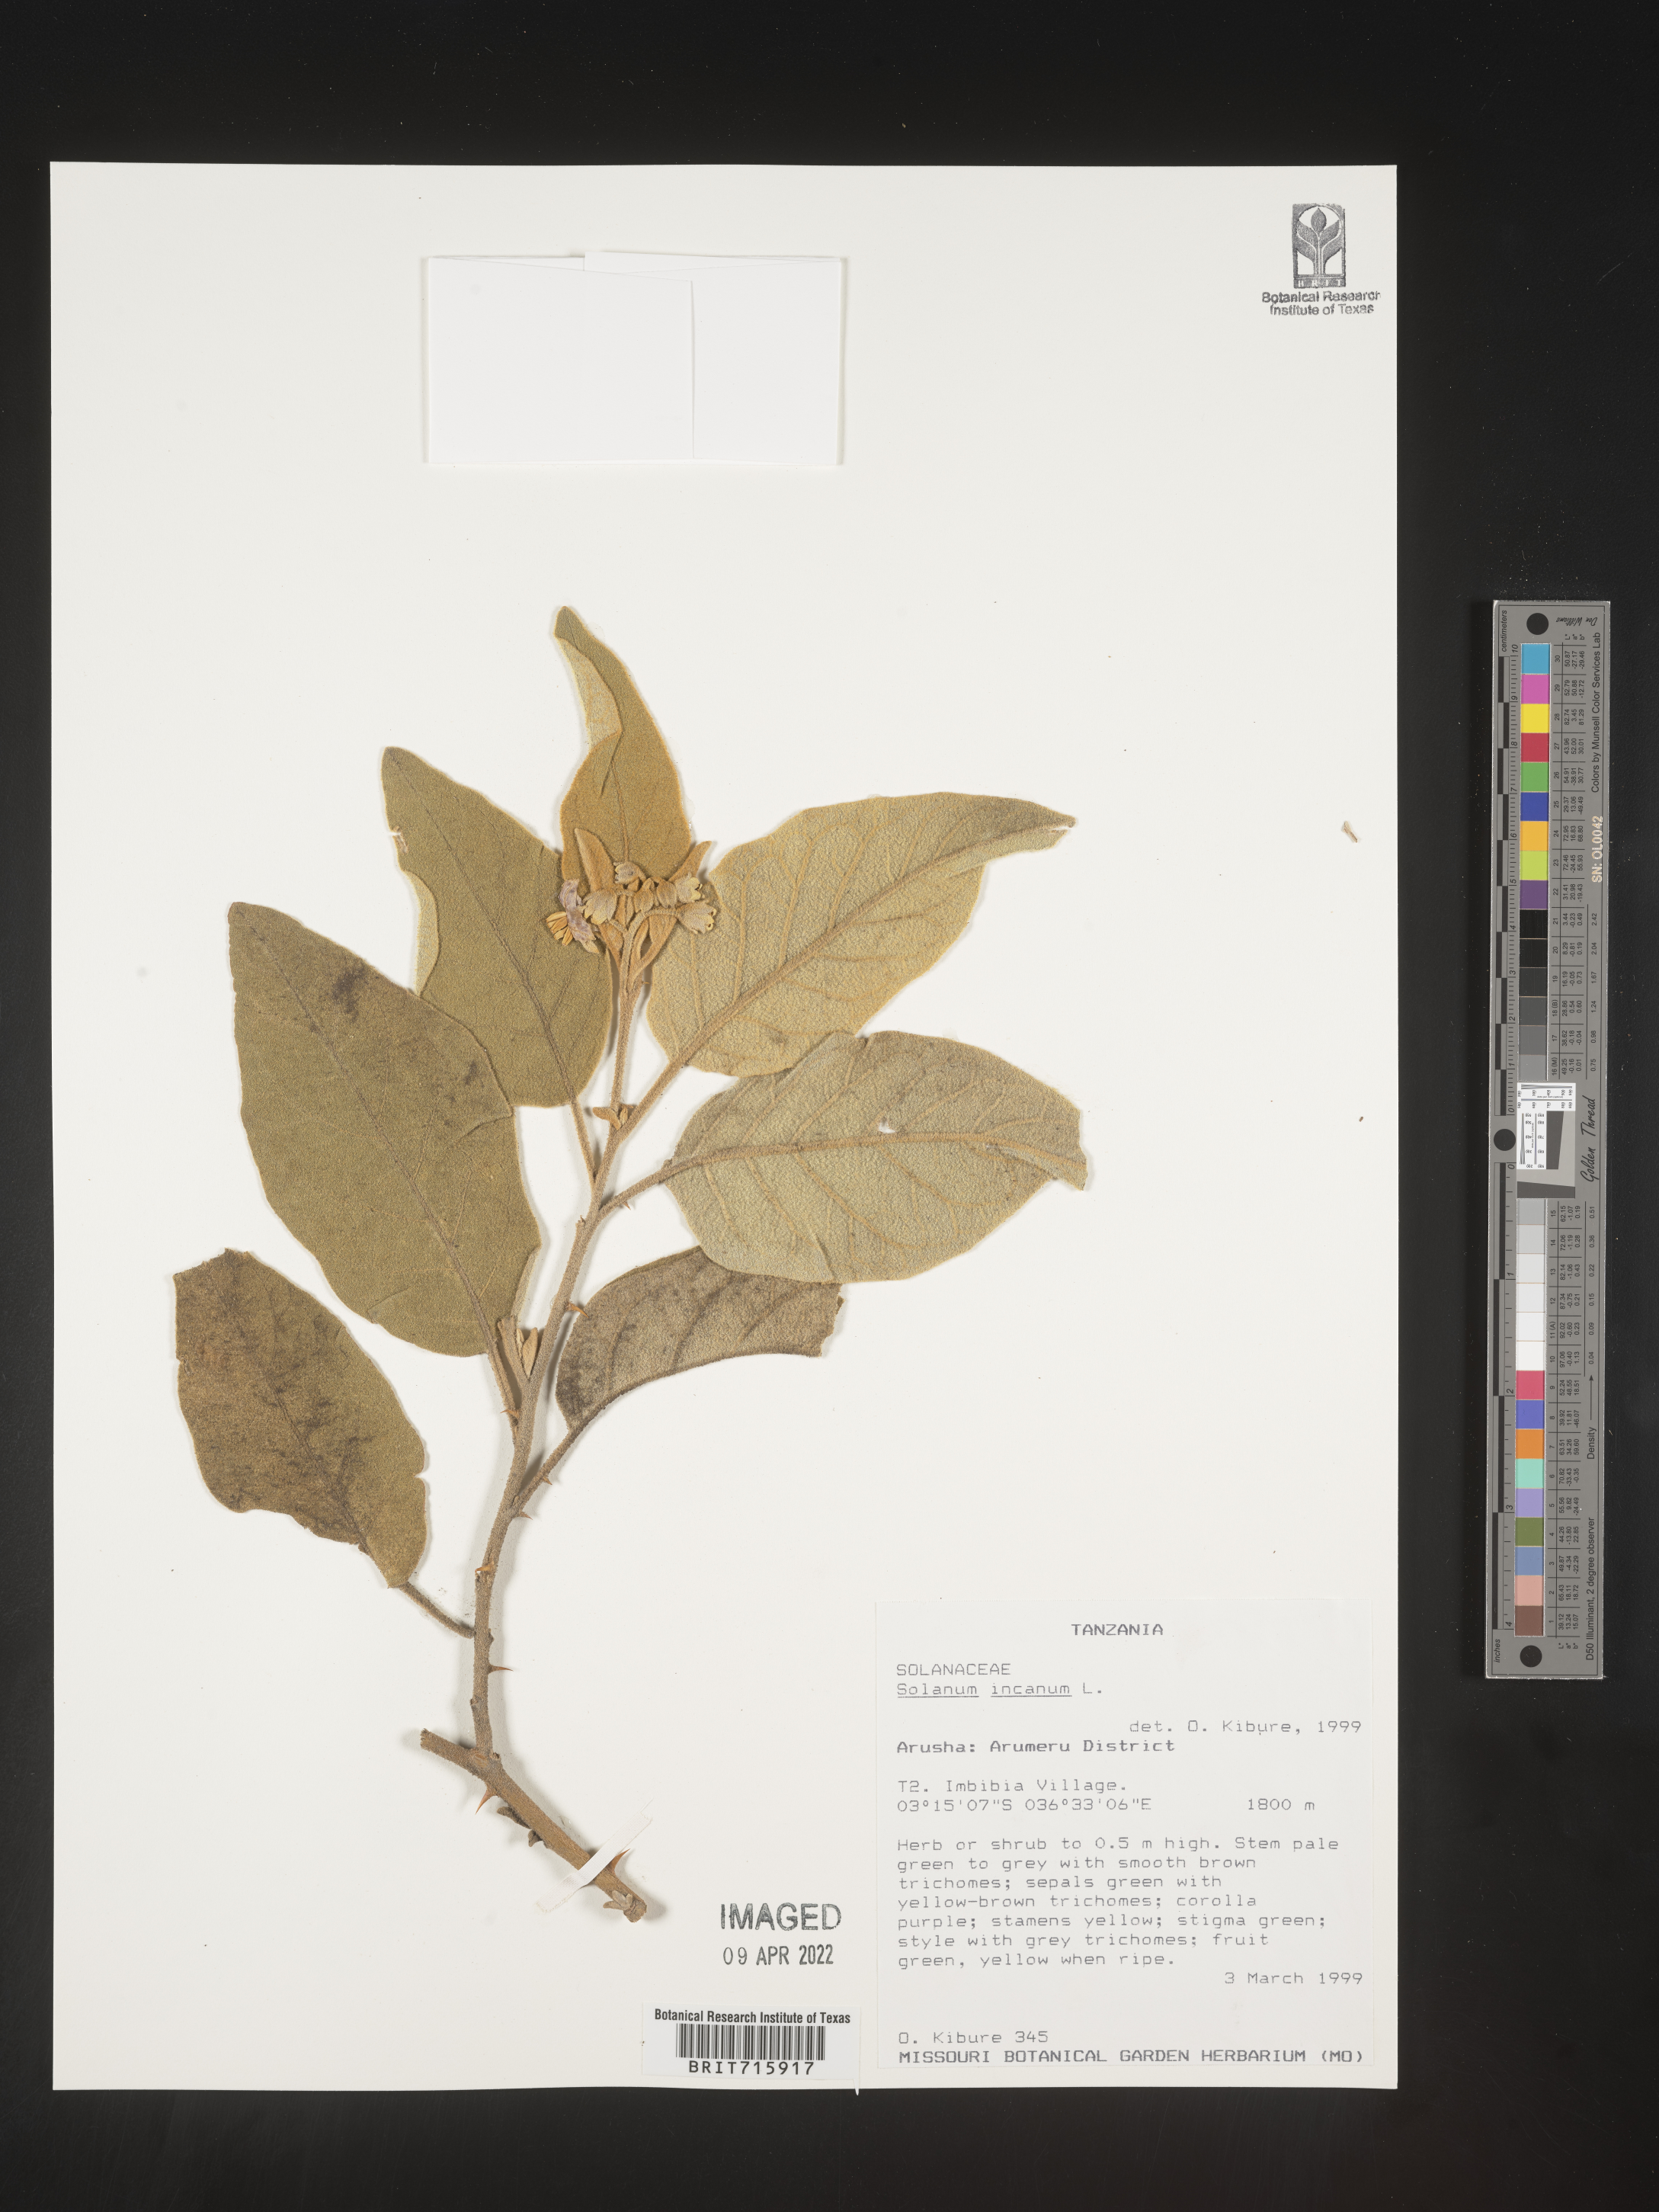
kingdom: Plantae
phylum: Tracheophyta
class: Magnoliopsida
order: Solanales
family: Solanaceae
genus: Solanum
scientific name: Solanum
